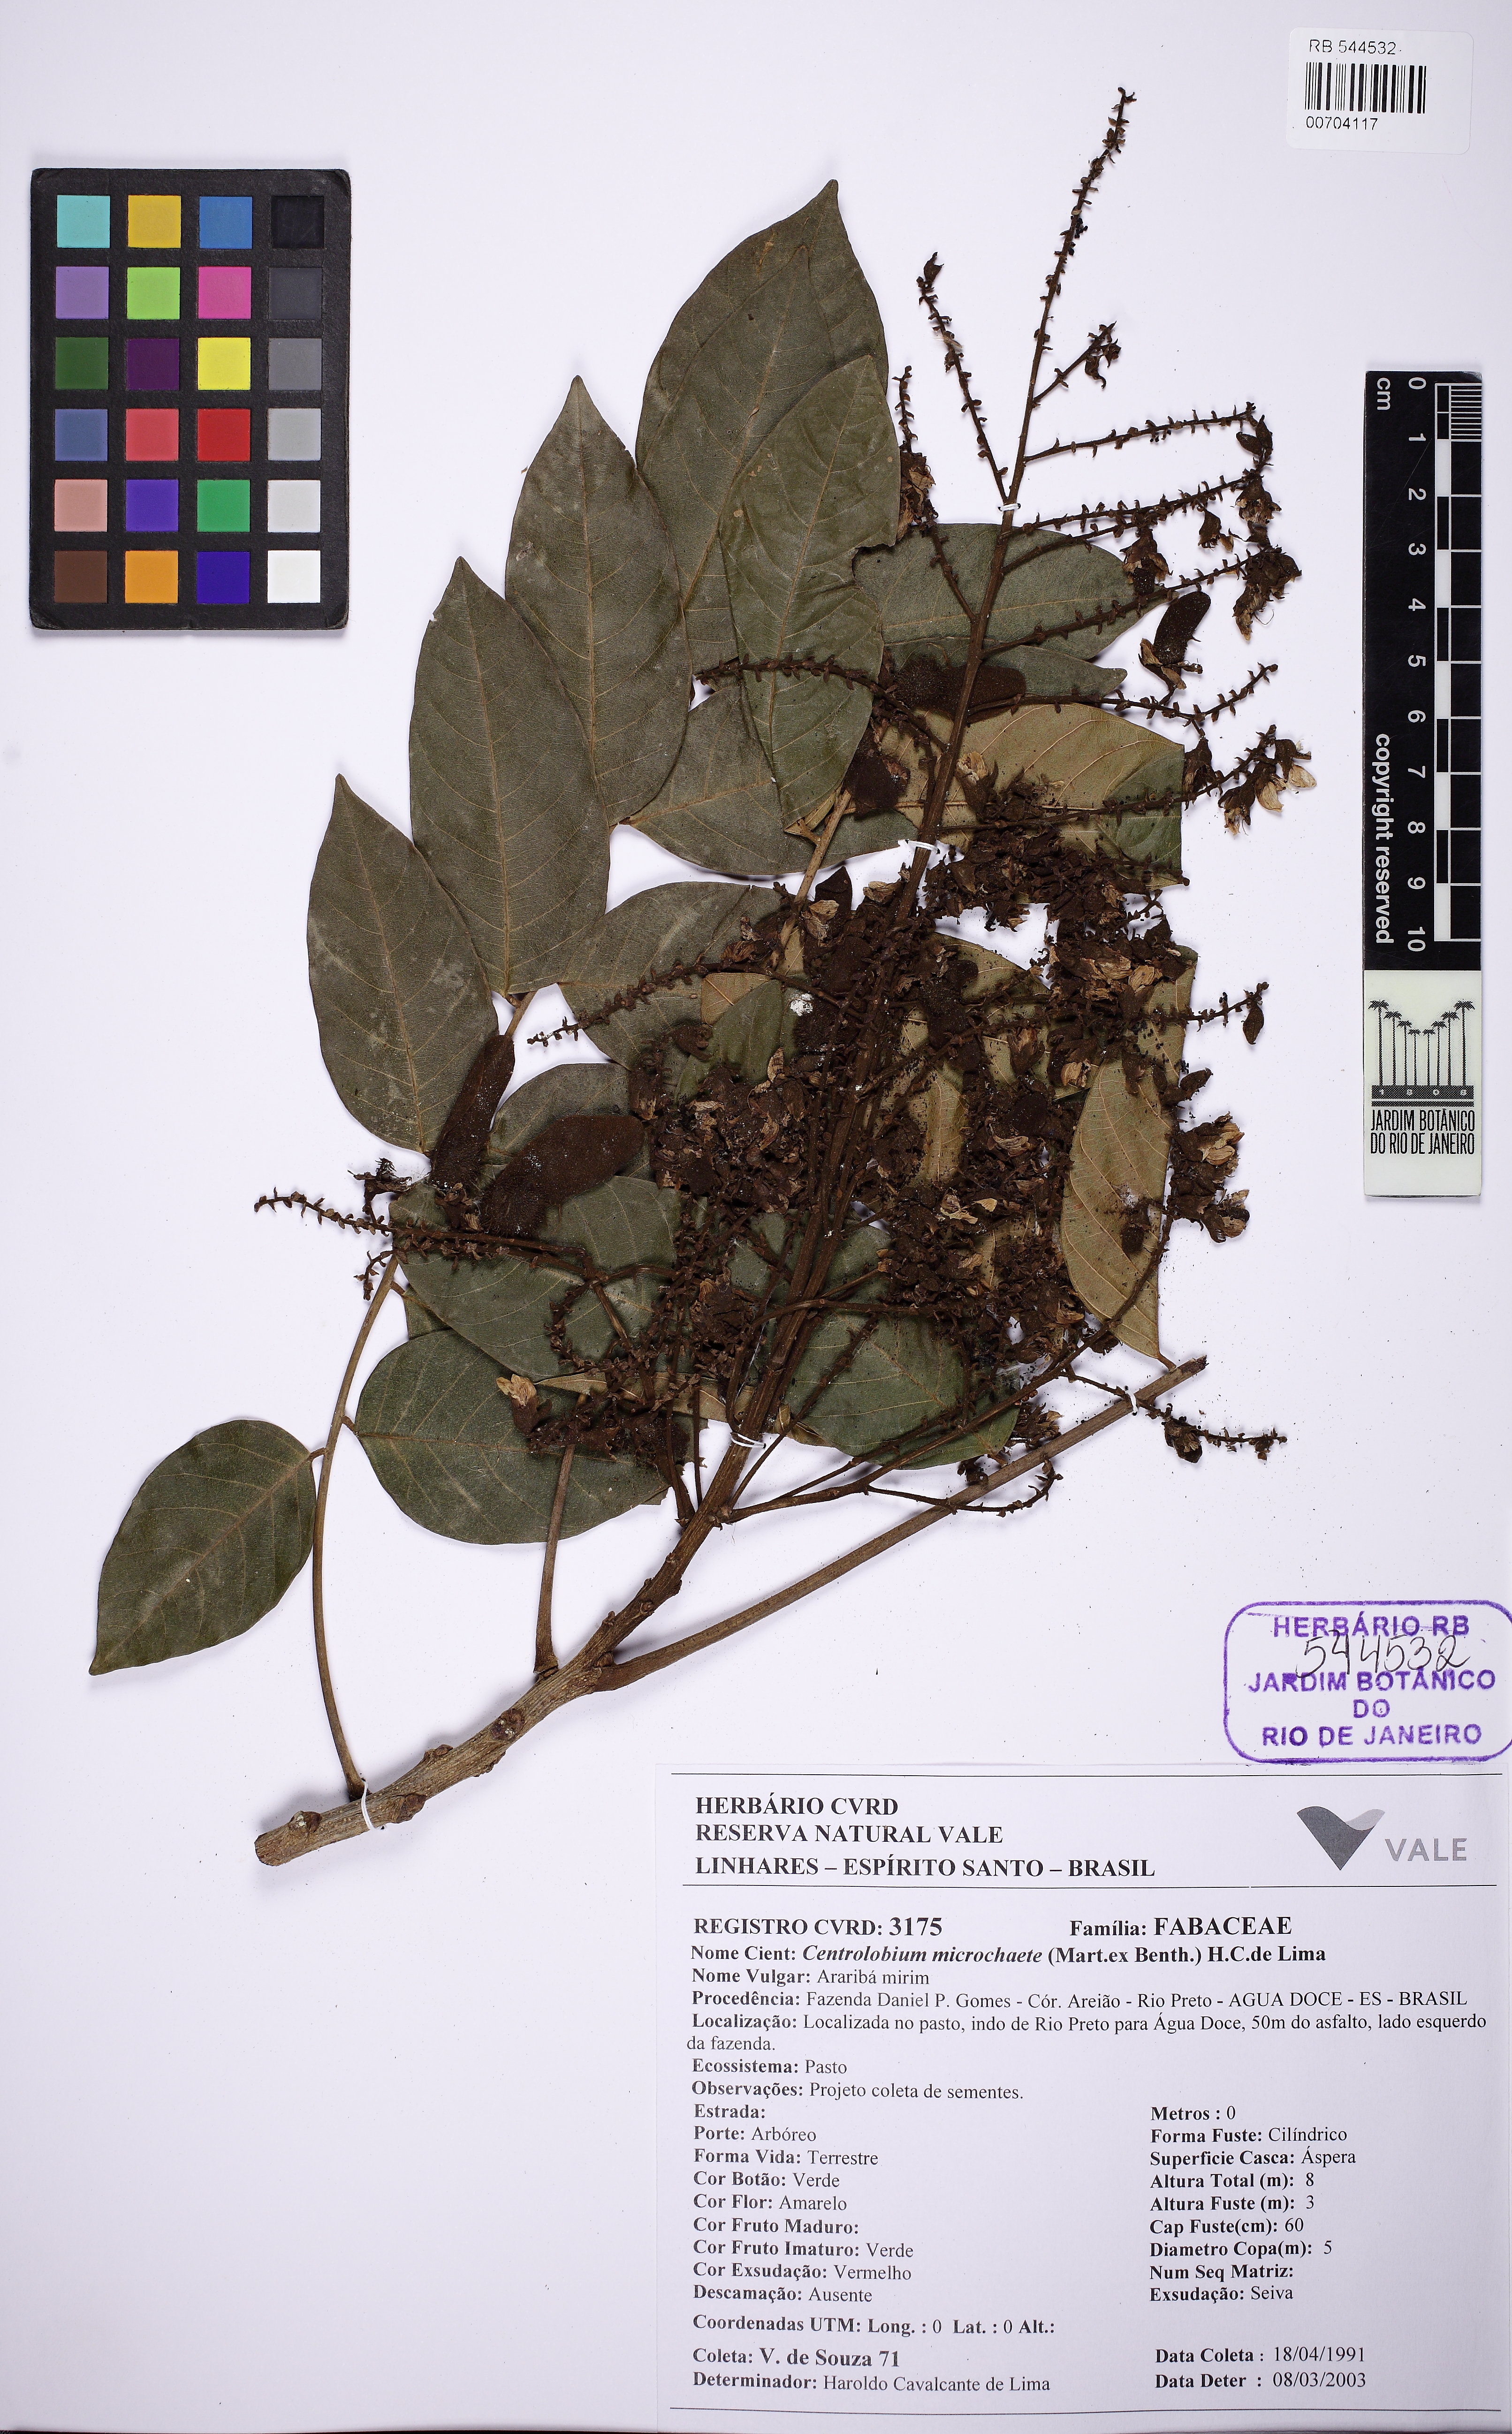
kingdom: Plantae
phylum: Tracheophyta
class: Magnoliopsida
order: Fabales
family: Fabaceae
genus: Centrolobium
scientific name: Centrolobium microchaete
